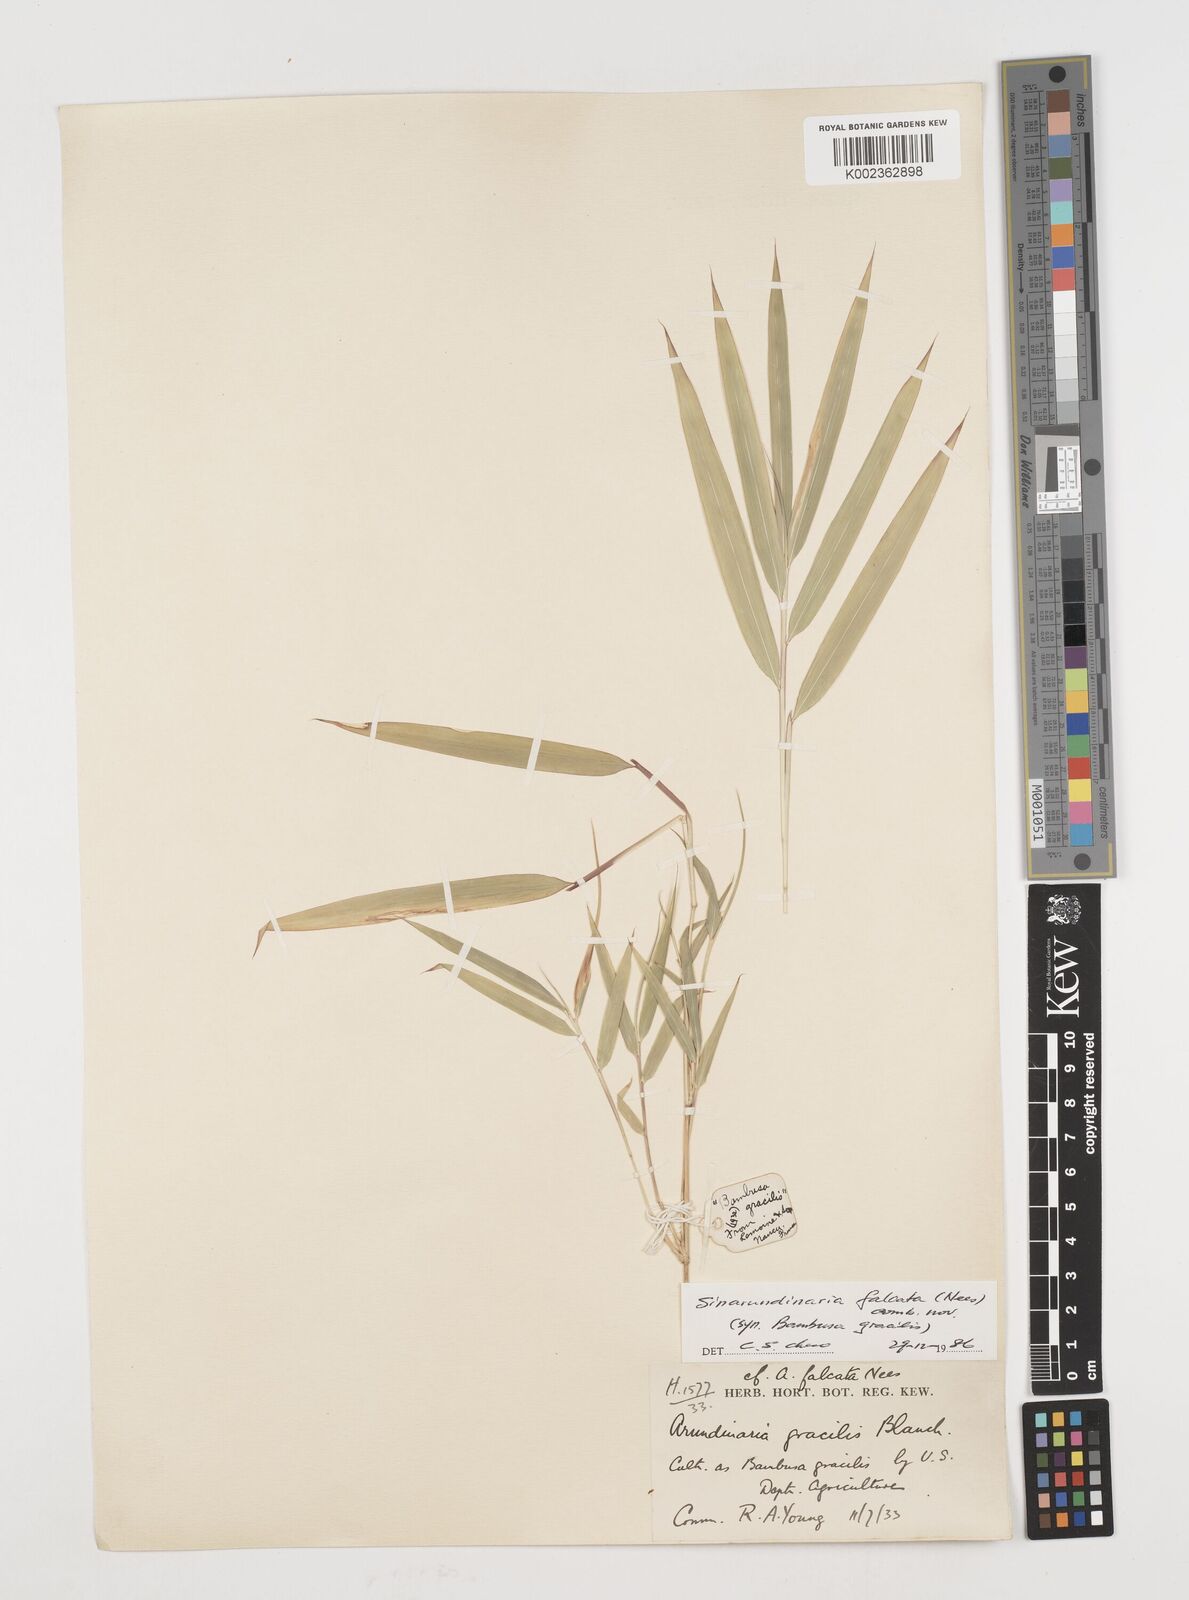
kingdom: Plantae
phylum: Tracheophyta
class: Liliopsida
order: Poales
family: Poaceae
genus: Drepanostachyum
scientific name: Drepanostachyum
